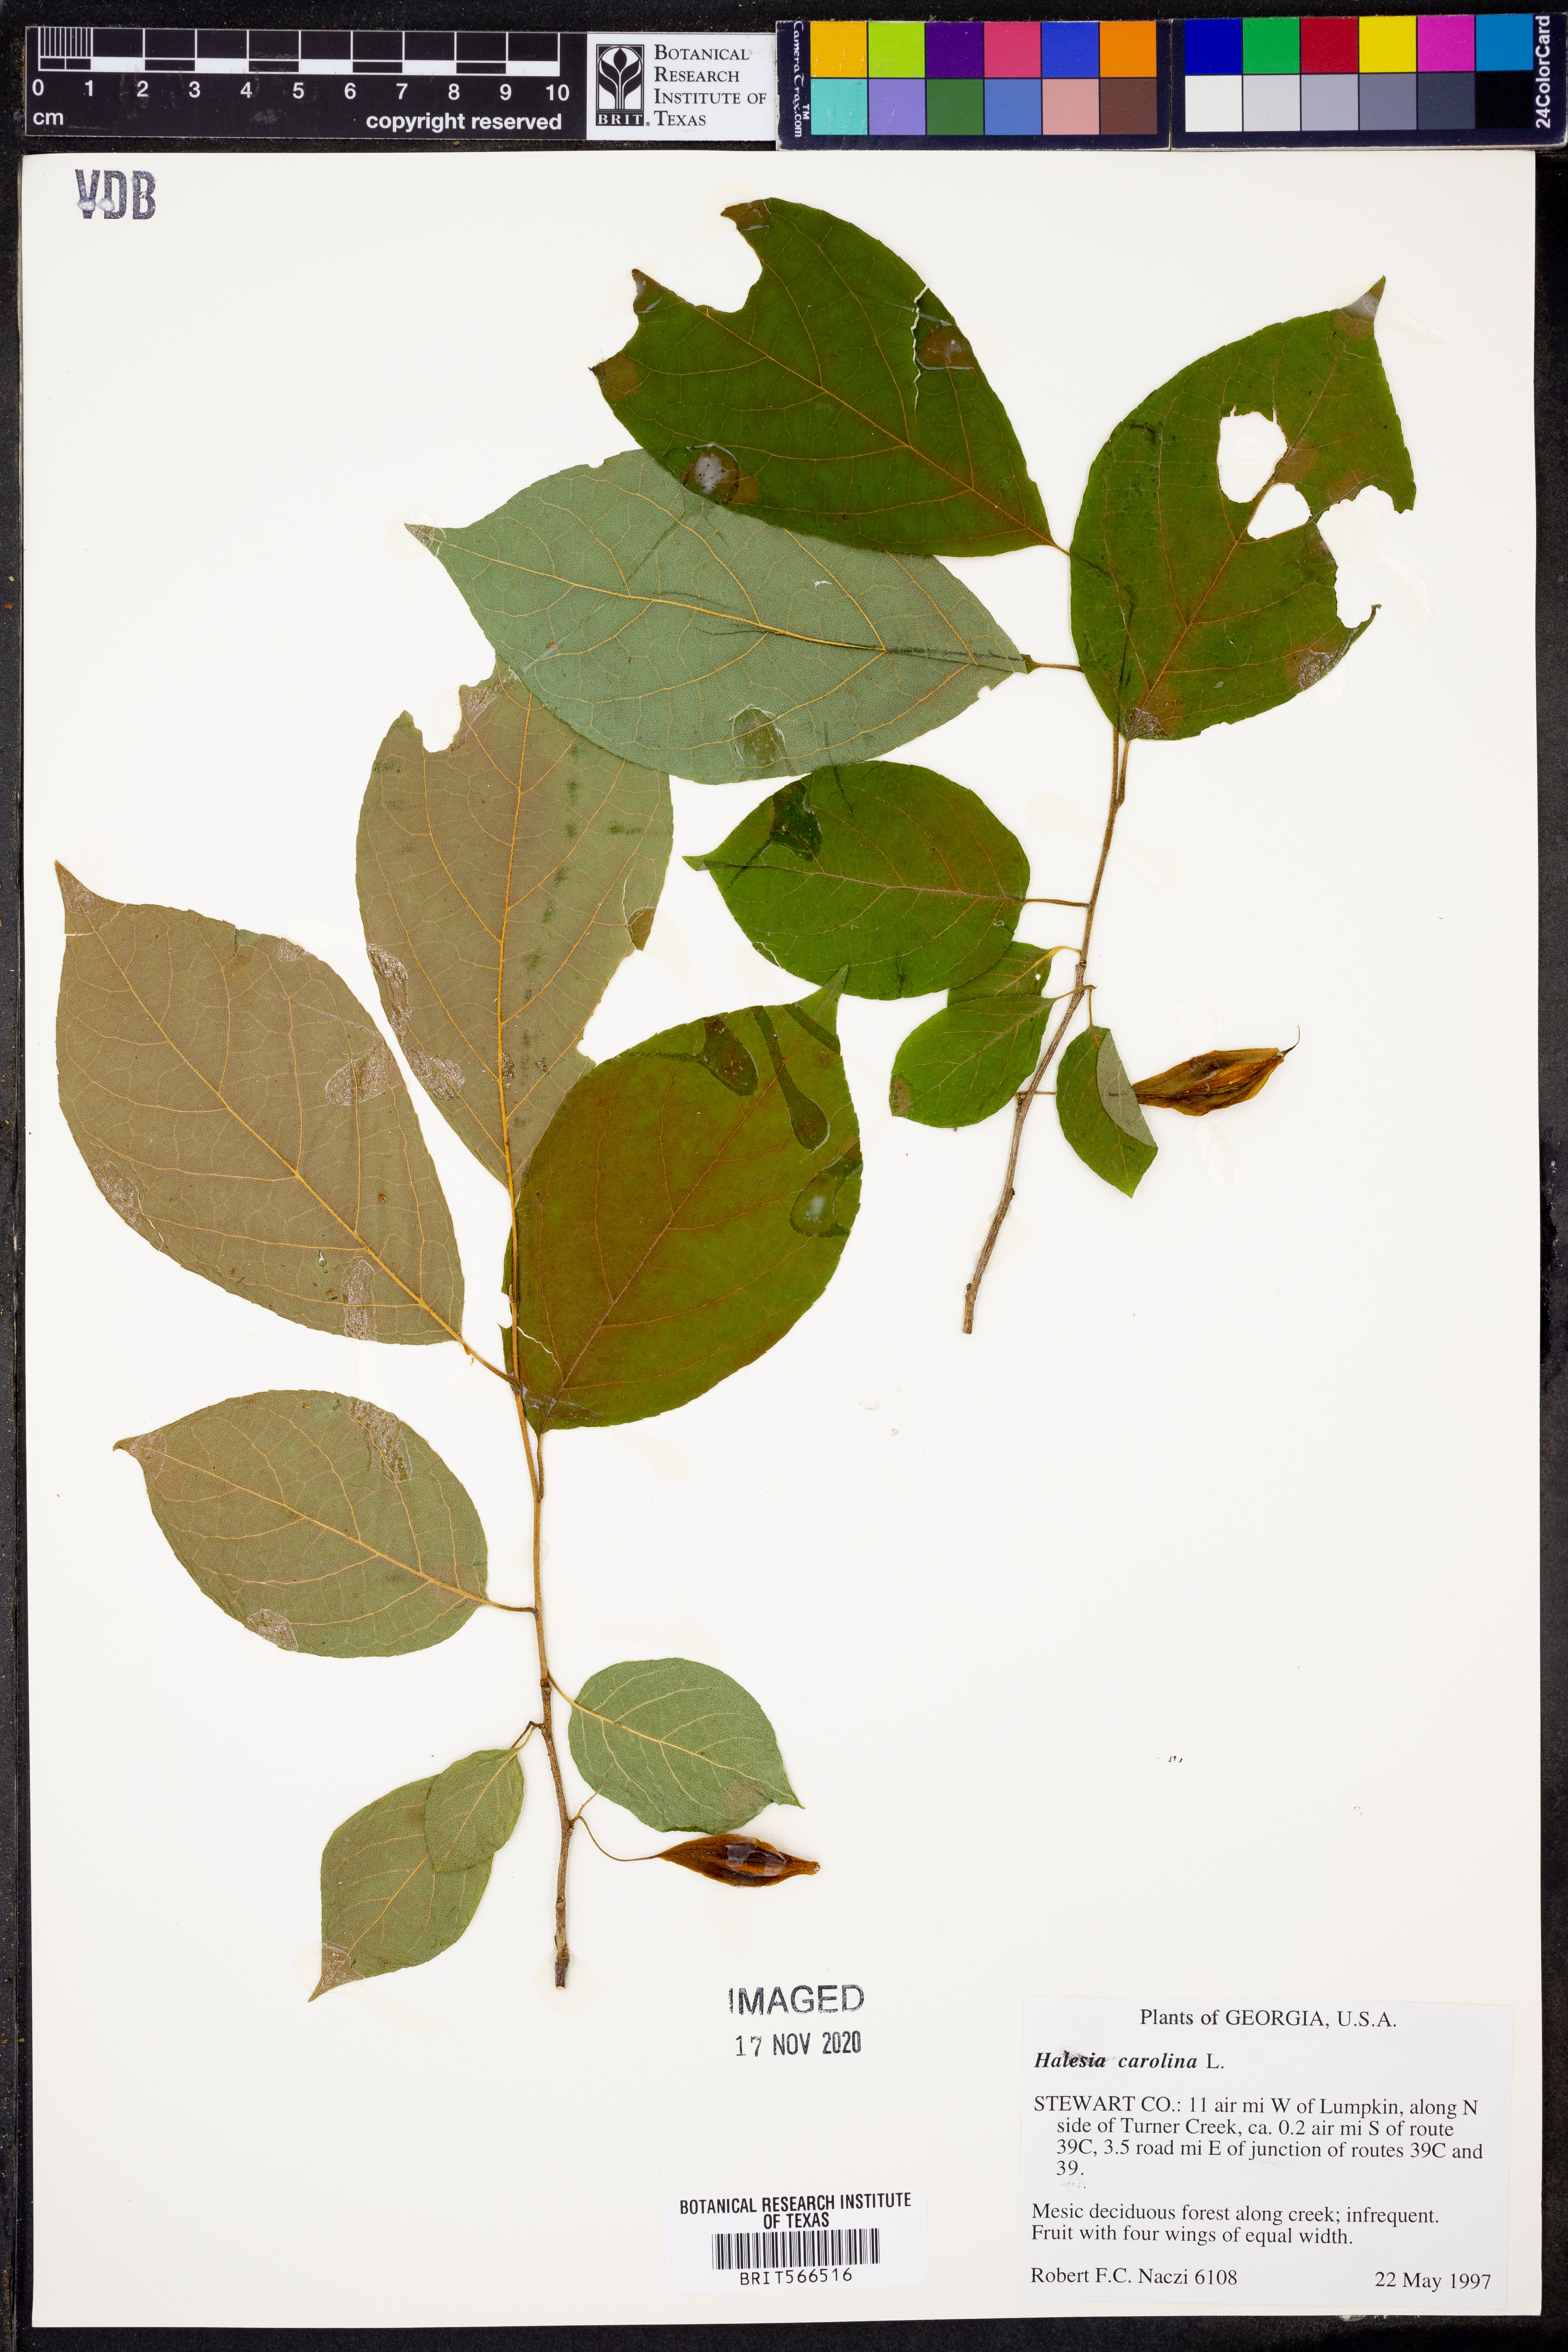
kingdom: Plantae
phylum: Tracheophyta
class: Magnoliopsida
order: Ericales
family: Styracaceae
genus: Halesia
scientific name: Halesia carolina
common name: Carolina silverbell
